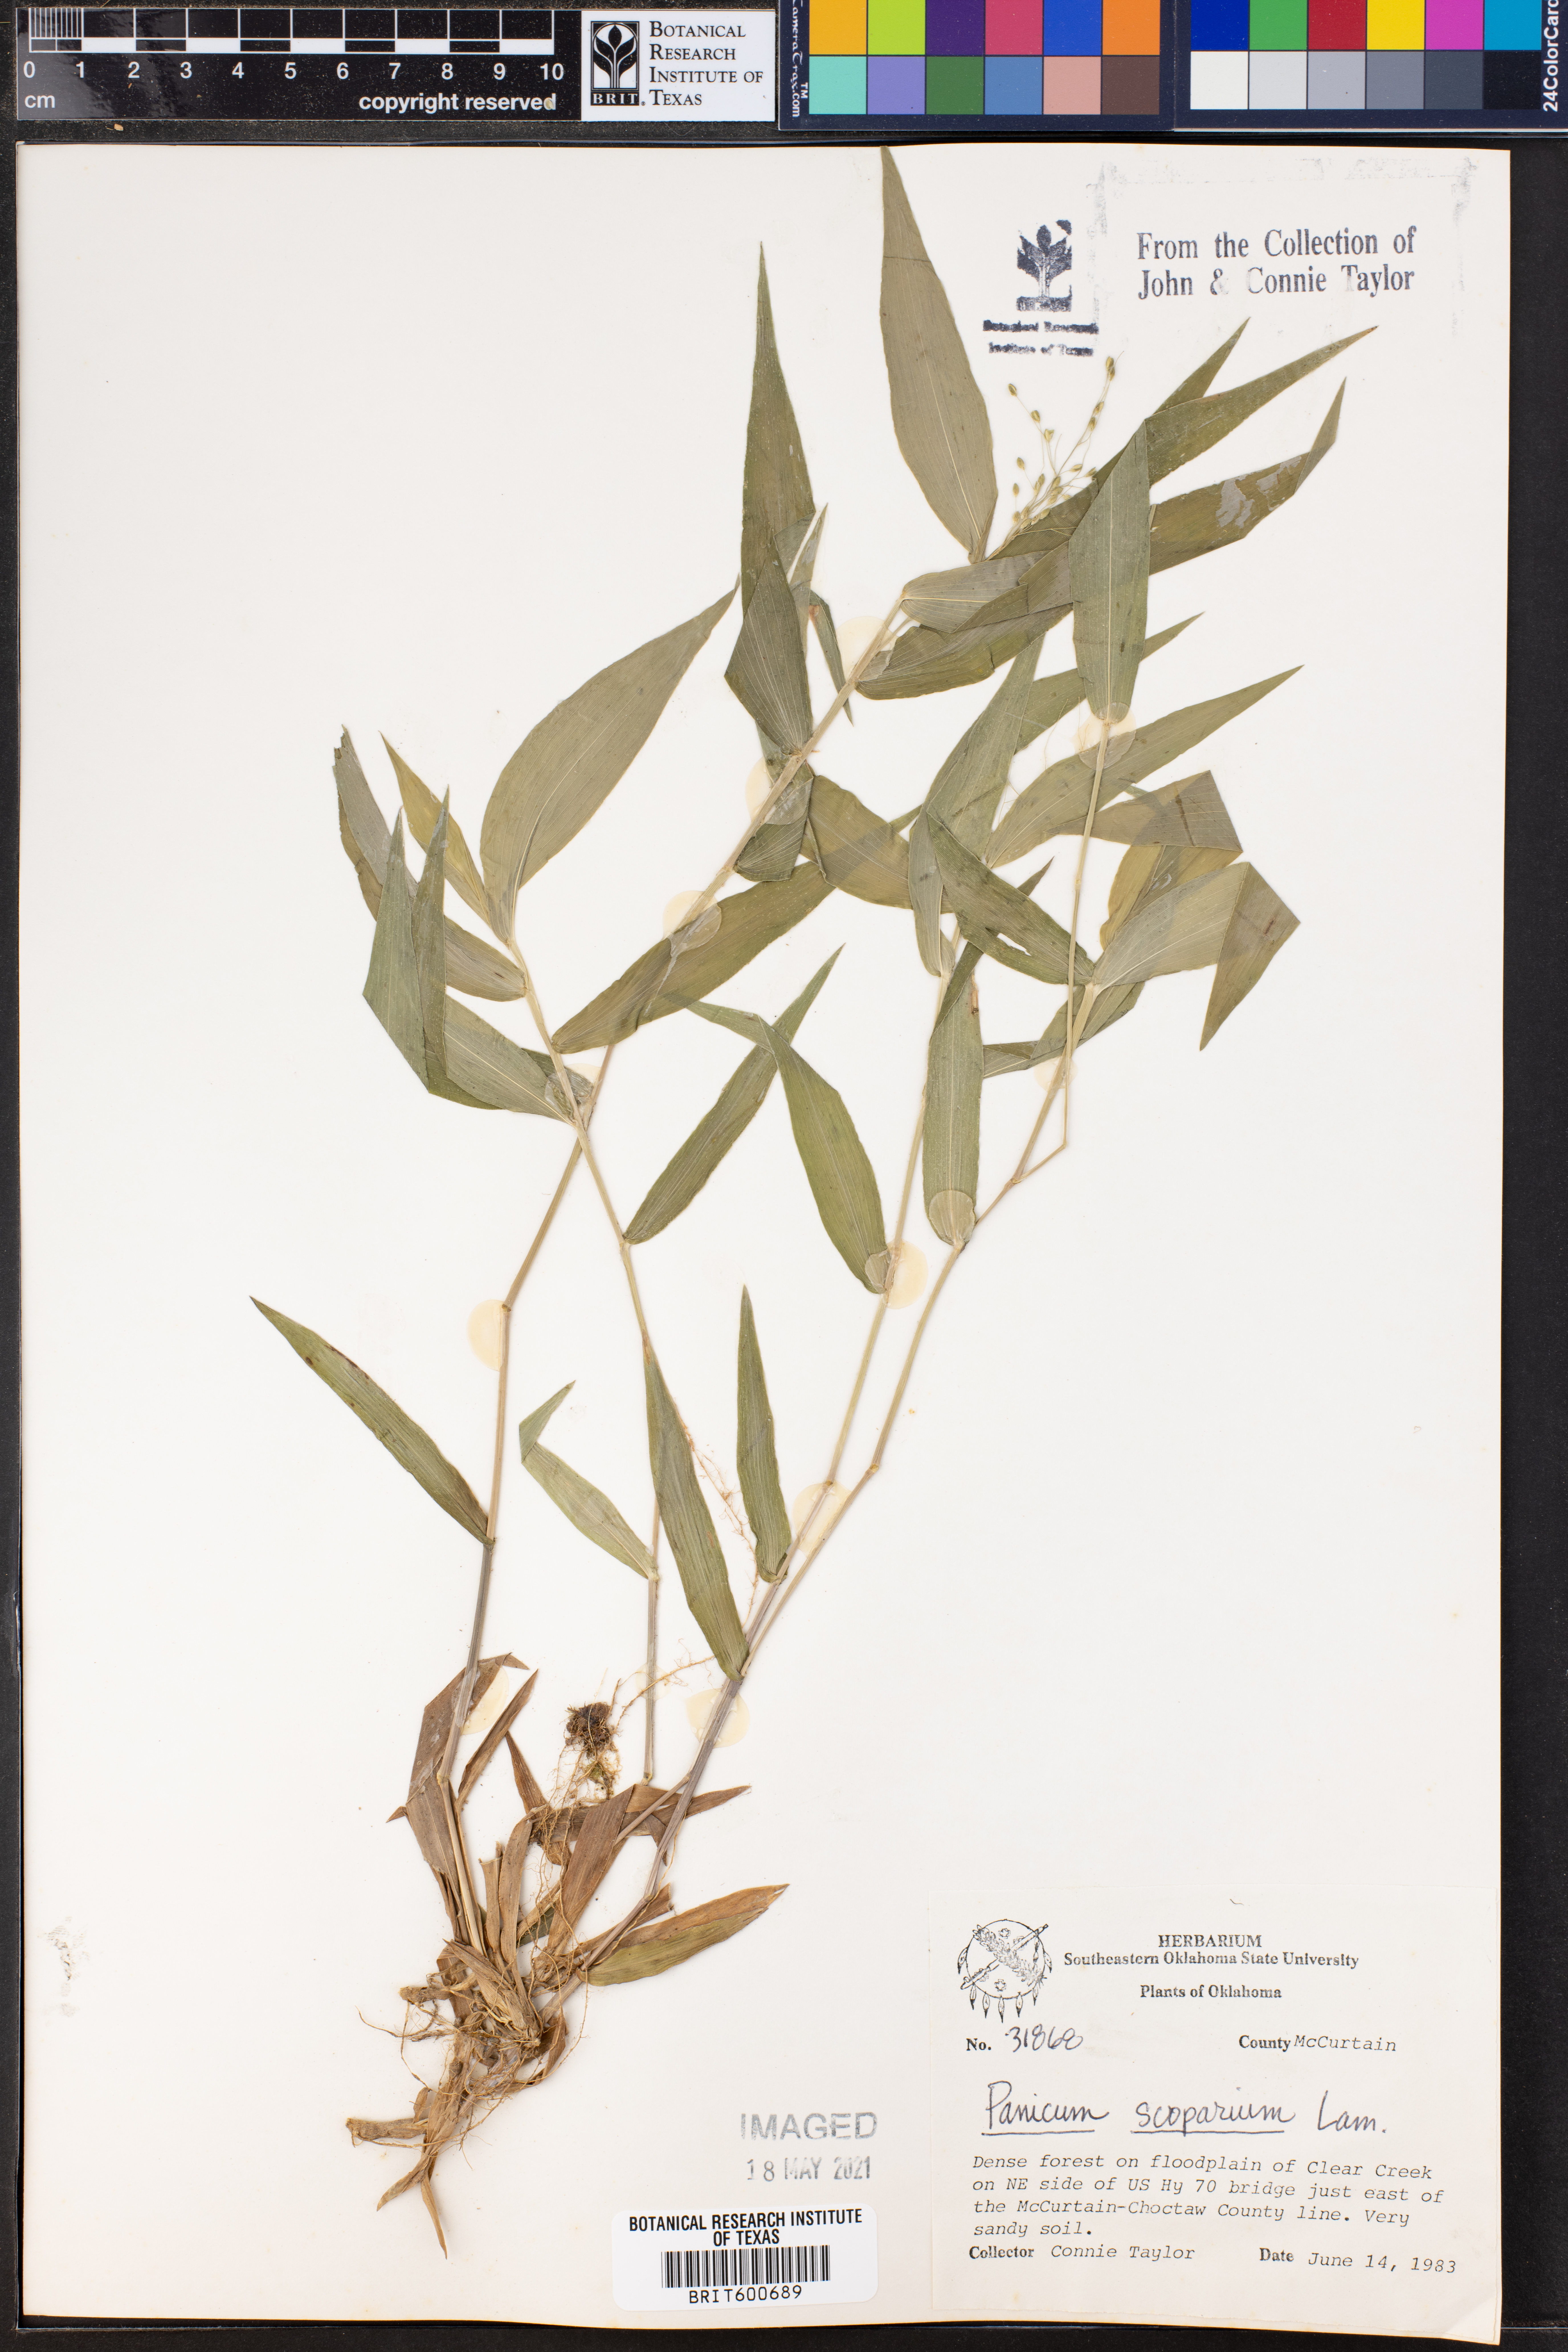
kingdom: Plantae
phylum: Tracheophyta
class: Liliopsida
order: Poales
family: Poaceae
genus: Dichanthelium
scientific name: Dichanthelium scribnerianum
